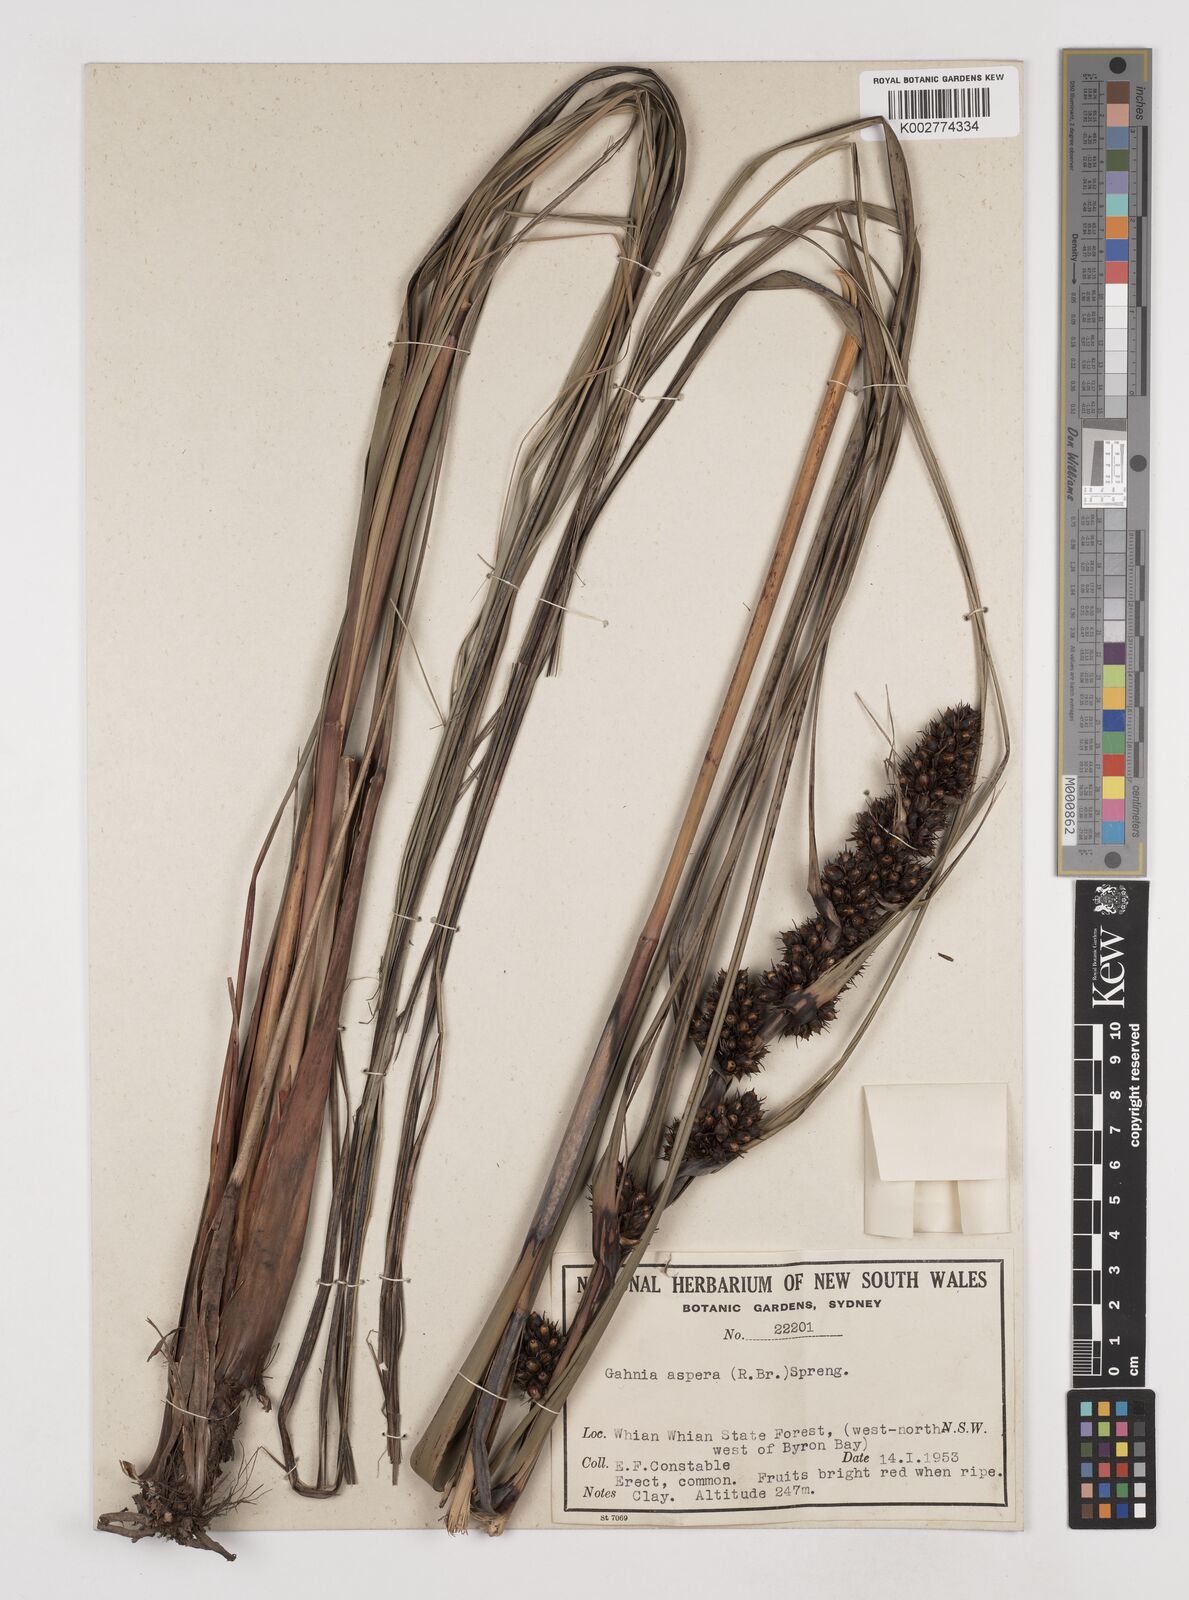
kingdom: Plantae
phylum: Tracheophyta
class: Liliopsida
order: Poales
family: Cyperaceae
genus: Gahnia
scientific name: Gahnia aspera
